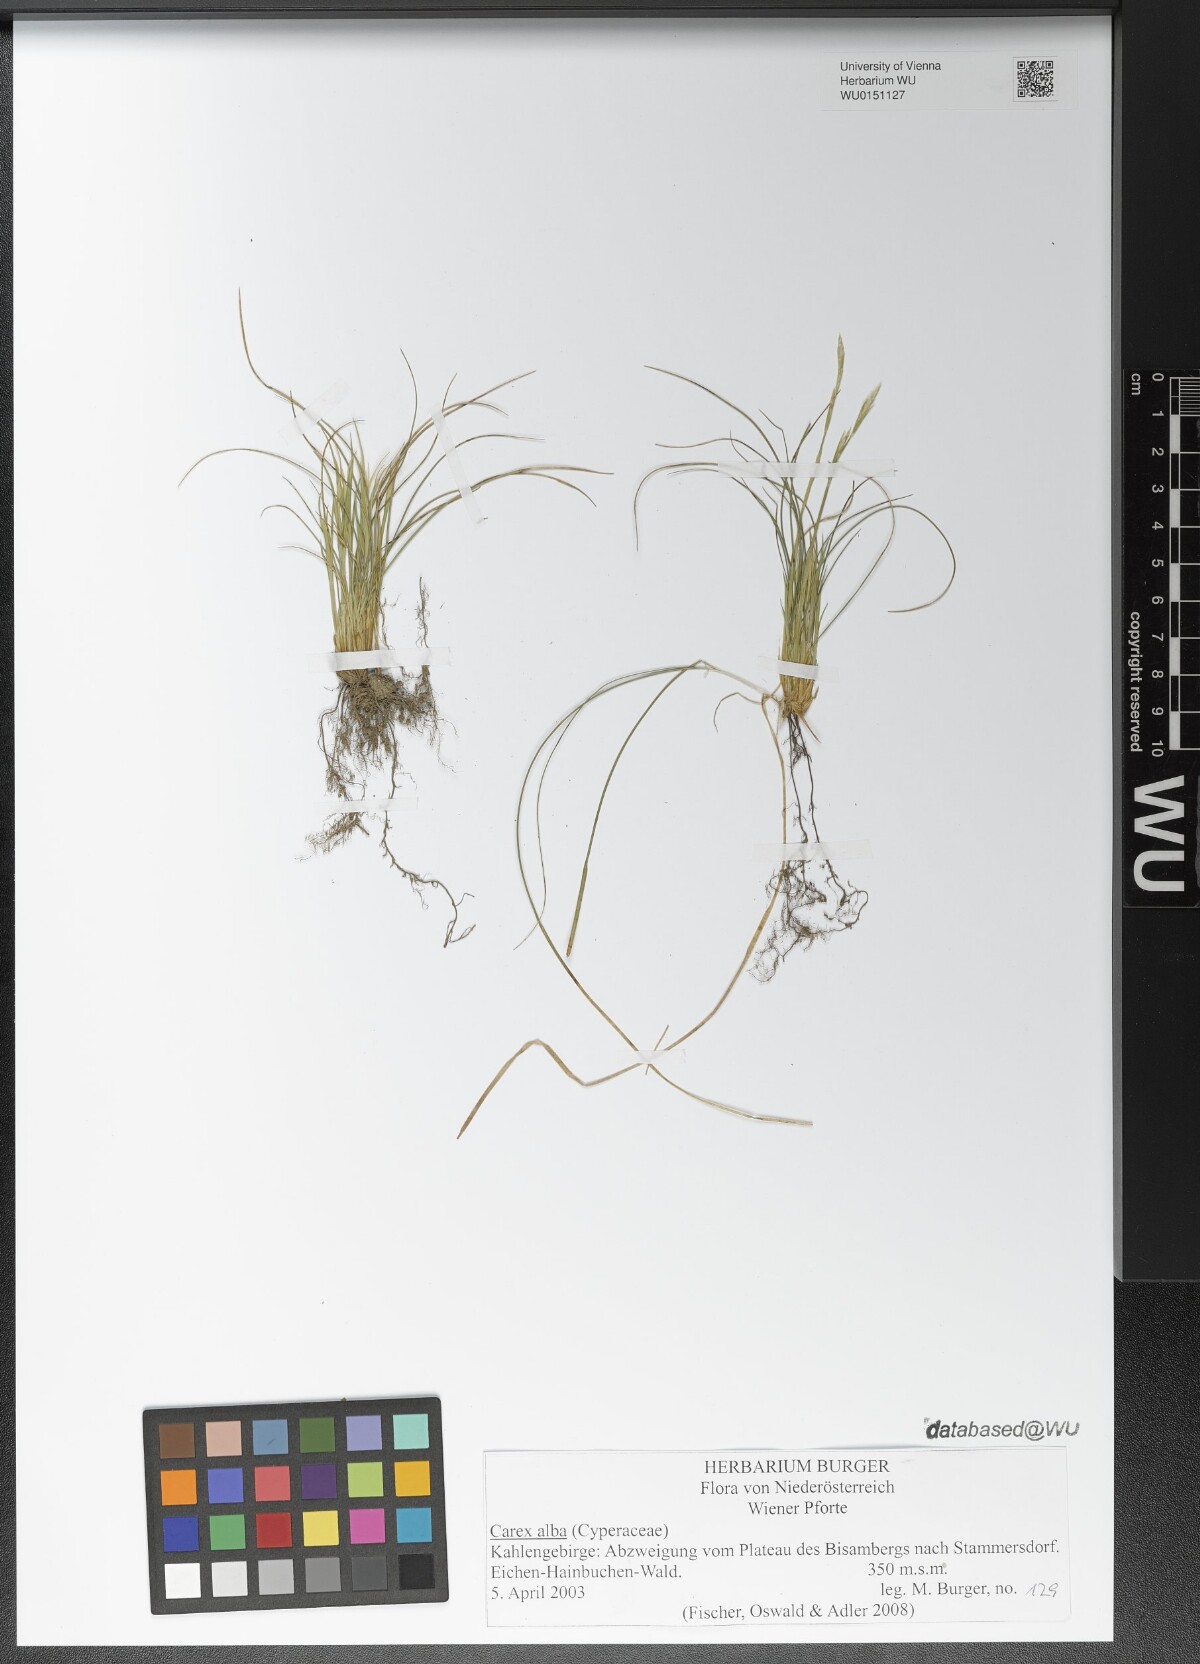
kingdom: Plantae
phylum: Tracheophyta
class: Liliopsida
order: Poales
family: Cyperaceae
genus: Carex
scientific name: Carex alba
